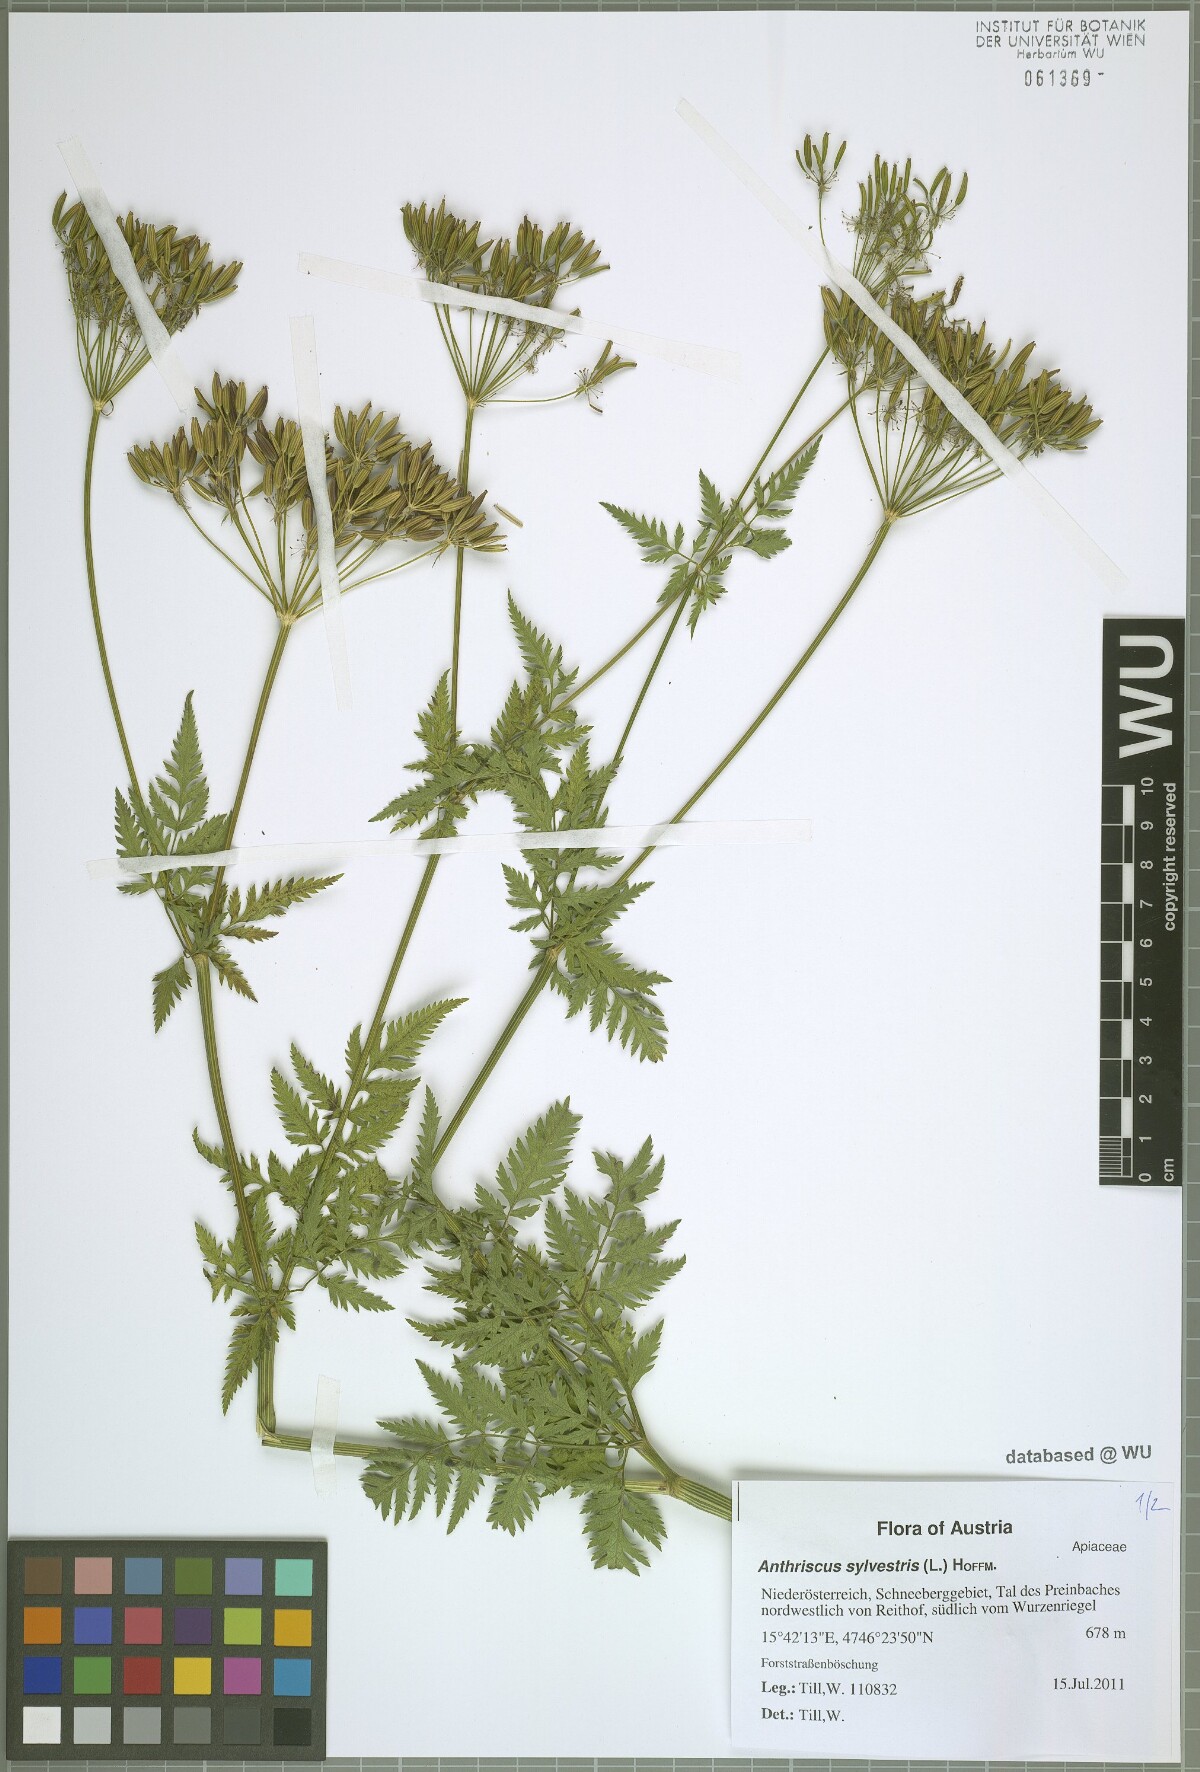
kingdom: Plantae
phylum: Tracheophyta
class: Magnoliopsida
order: Apiales
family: Apiaceae
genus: Anthriscus
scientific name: Anthriscus sylvestris
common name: Cow parsley
